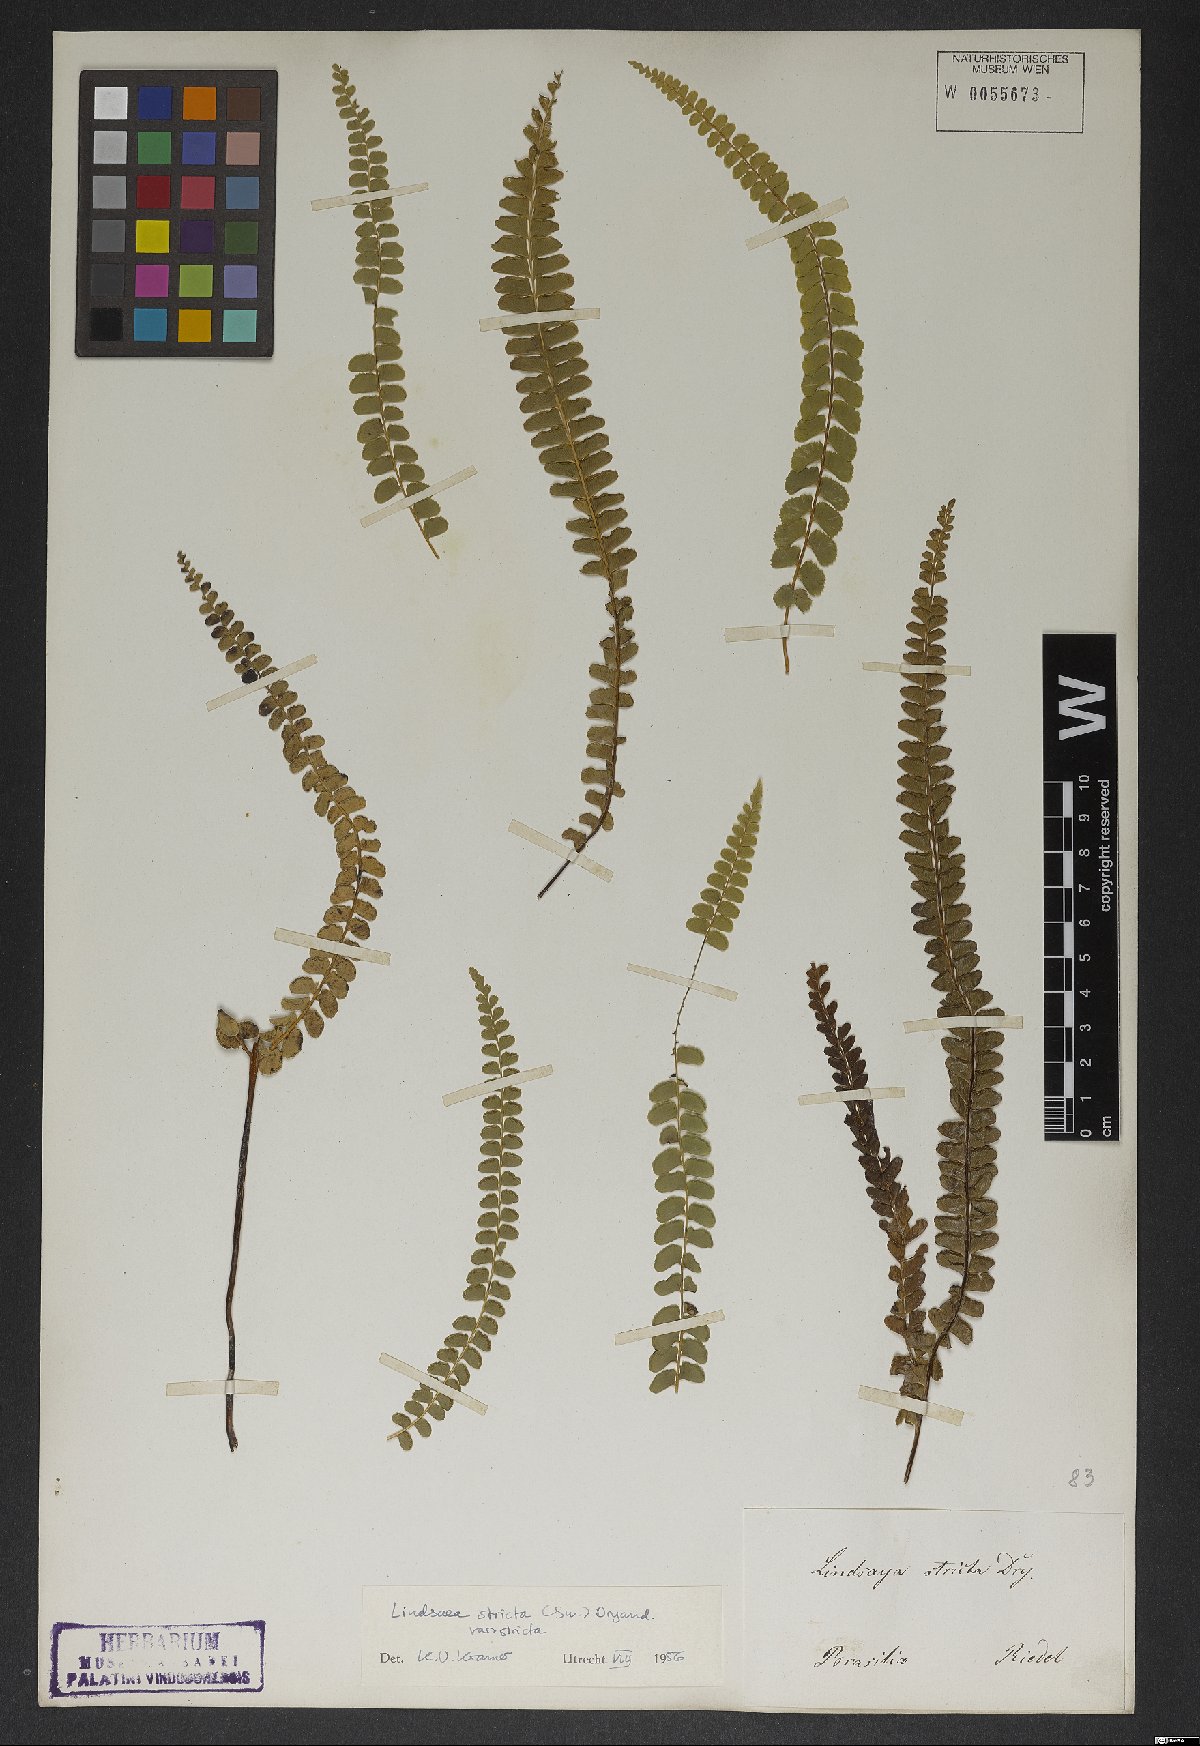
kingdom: Plantae
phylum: Tracheophyta
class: Polypodiopsida
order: Polypodiales
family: Lindsaeaceae
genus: Lindsaea
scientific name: Lindsaea stricta
